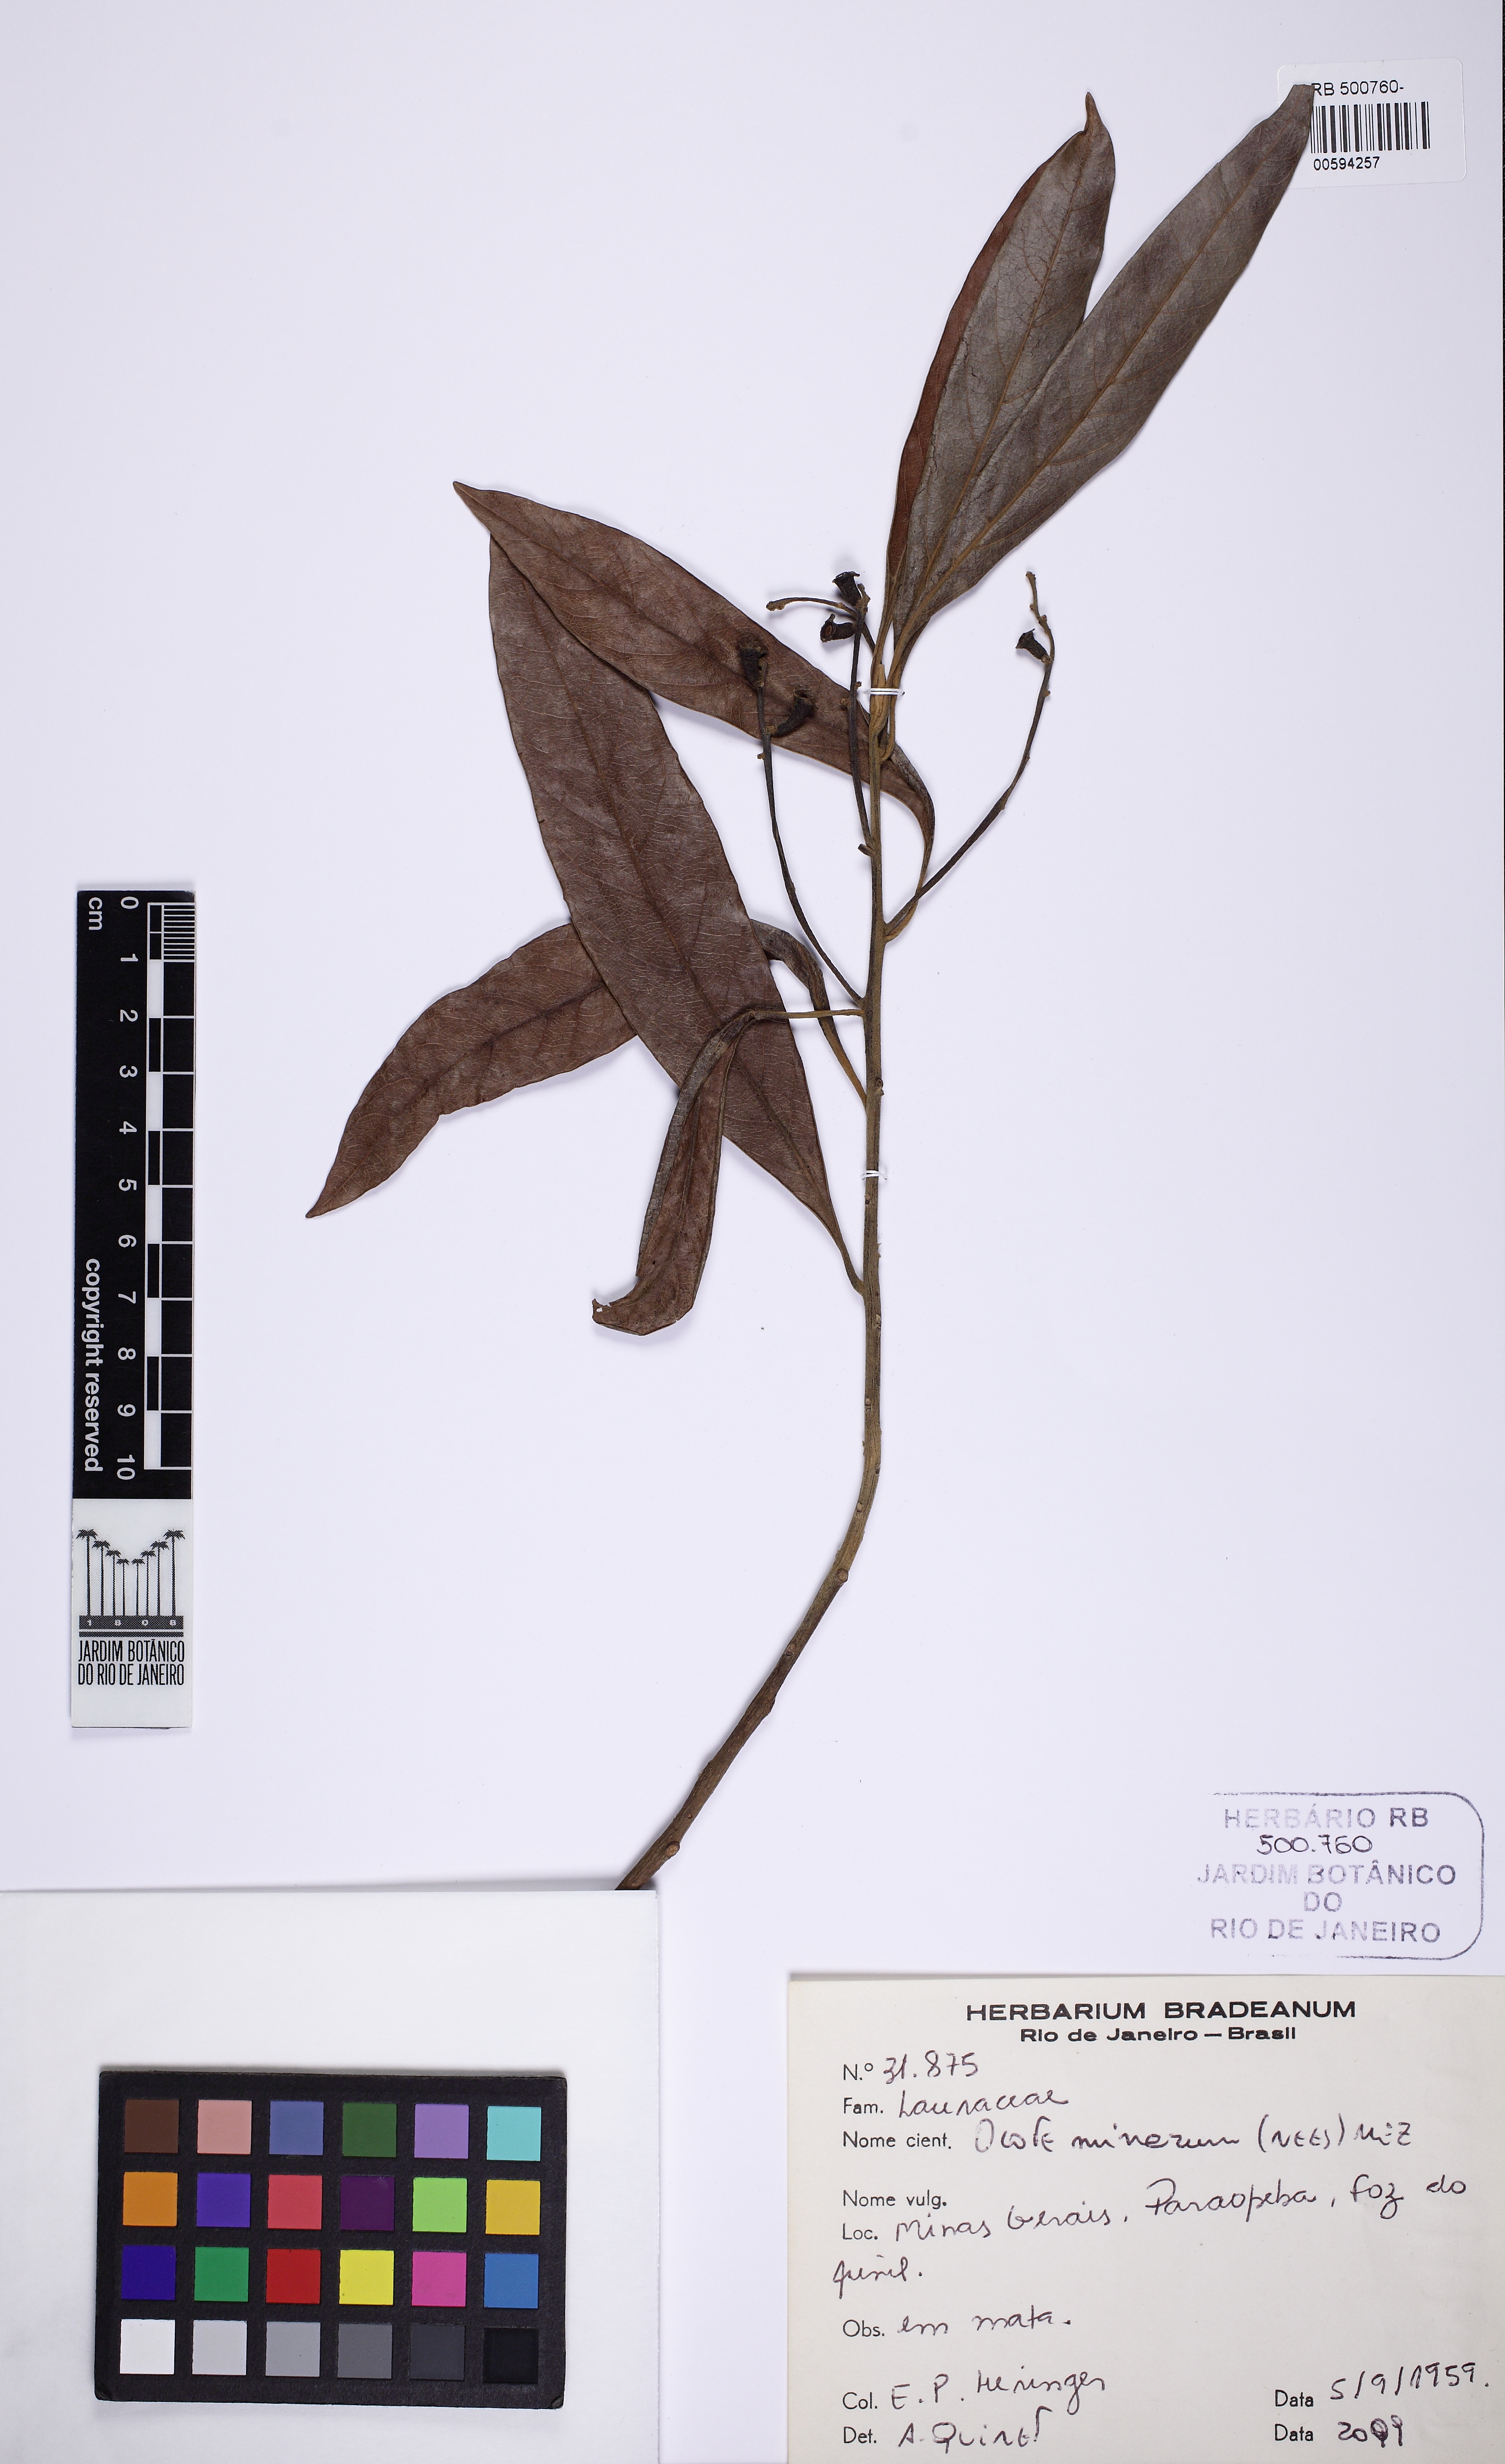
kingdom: Plantae
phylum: Tracheophyta
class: Magnoliopsida
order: Laurales
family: Lauraceae
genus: Ocotea
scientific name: Ocotea minarum
